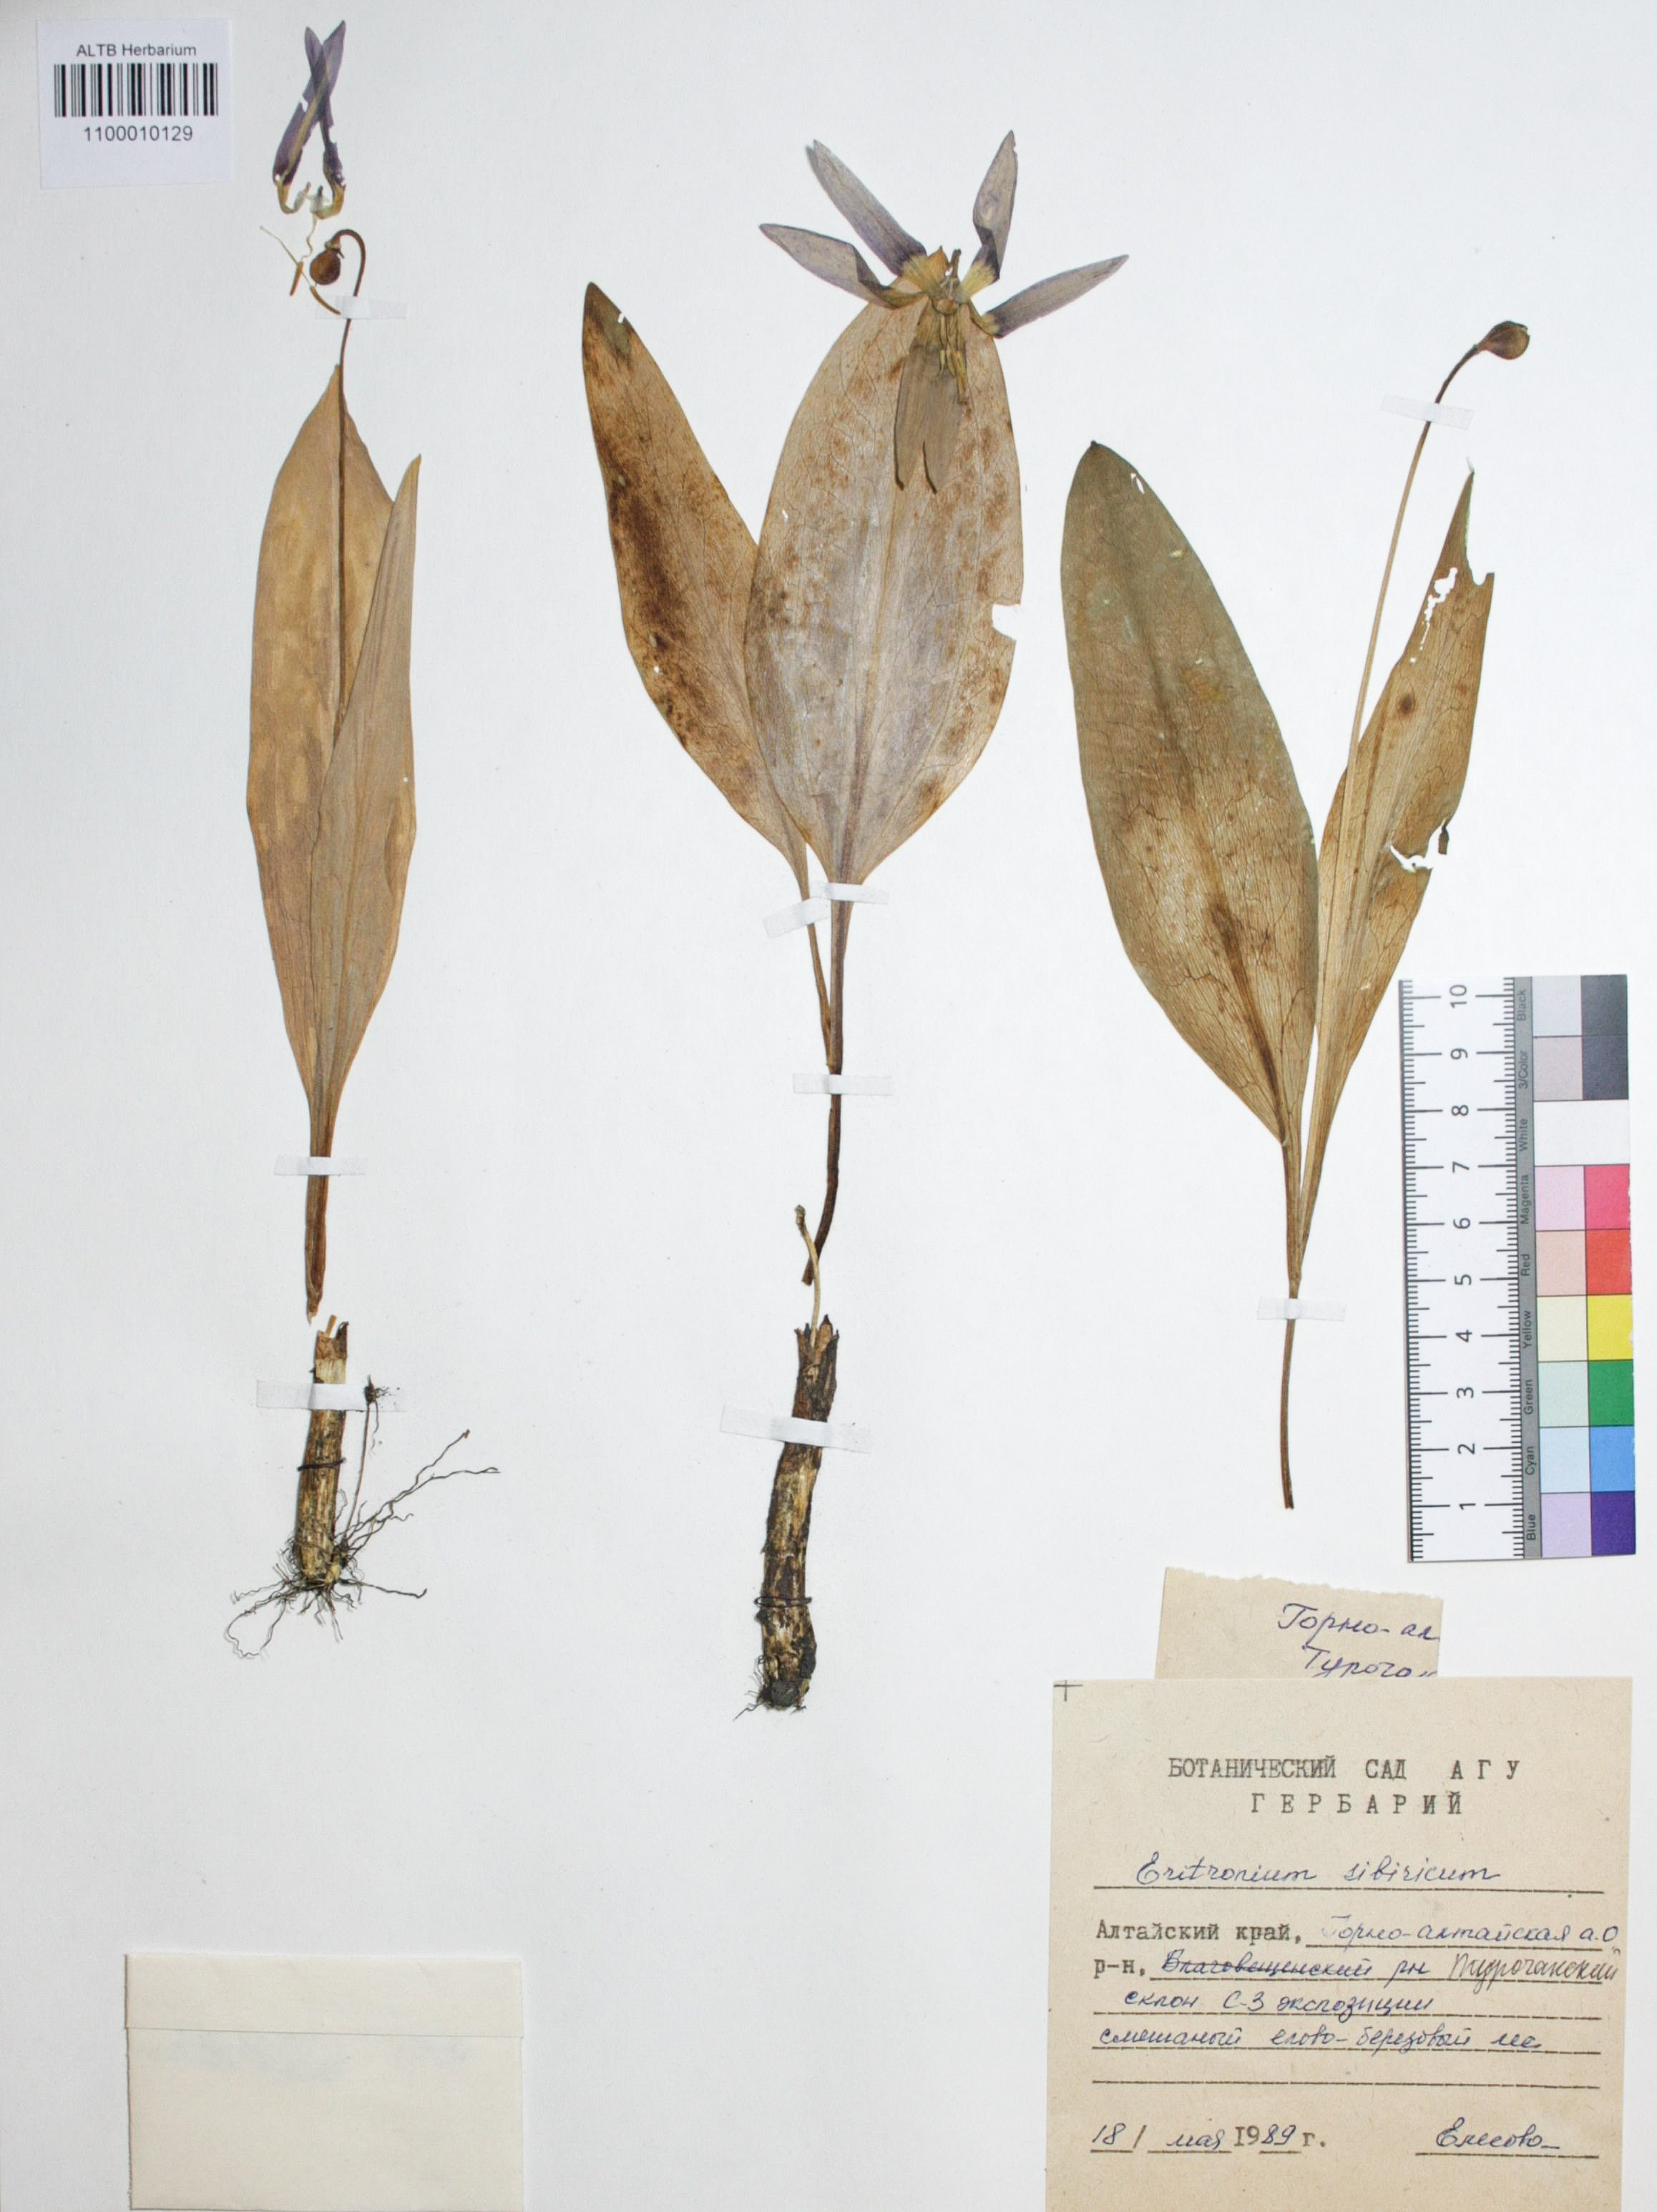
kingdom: Plantae
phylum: Tracheophyta
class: Liliopsida
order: Liliales
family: Liliaceae
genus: Erythronium
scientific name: Erythronium sibiricum
